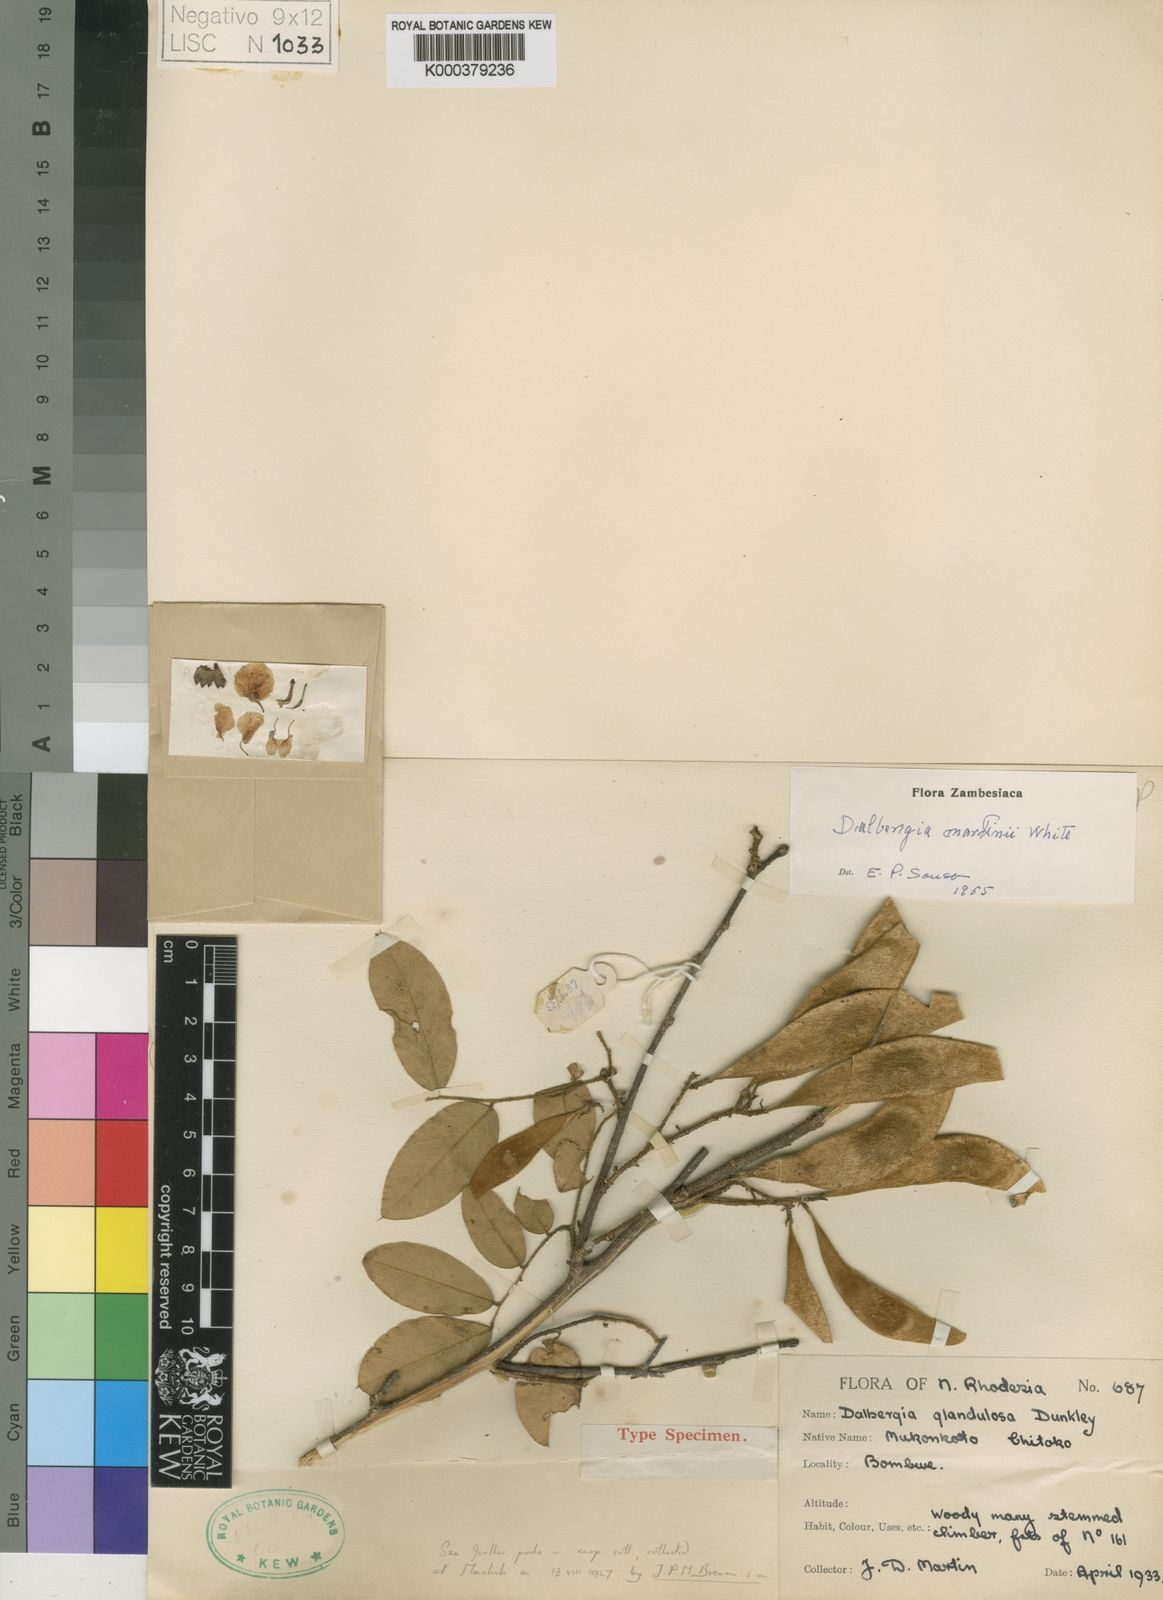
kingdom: Plantae
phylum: Tracheophyta
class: Magnoliopsida
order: Fabales
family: Fabaceae
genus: Dalbergia
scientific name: Dalbergia martini
